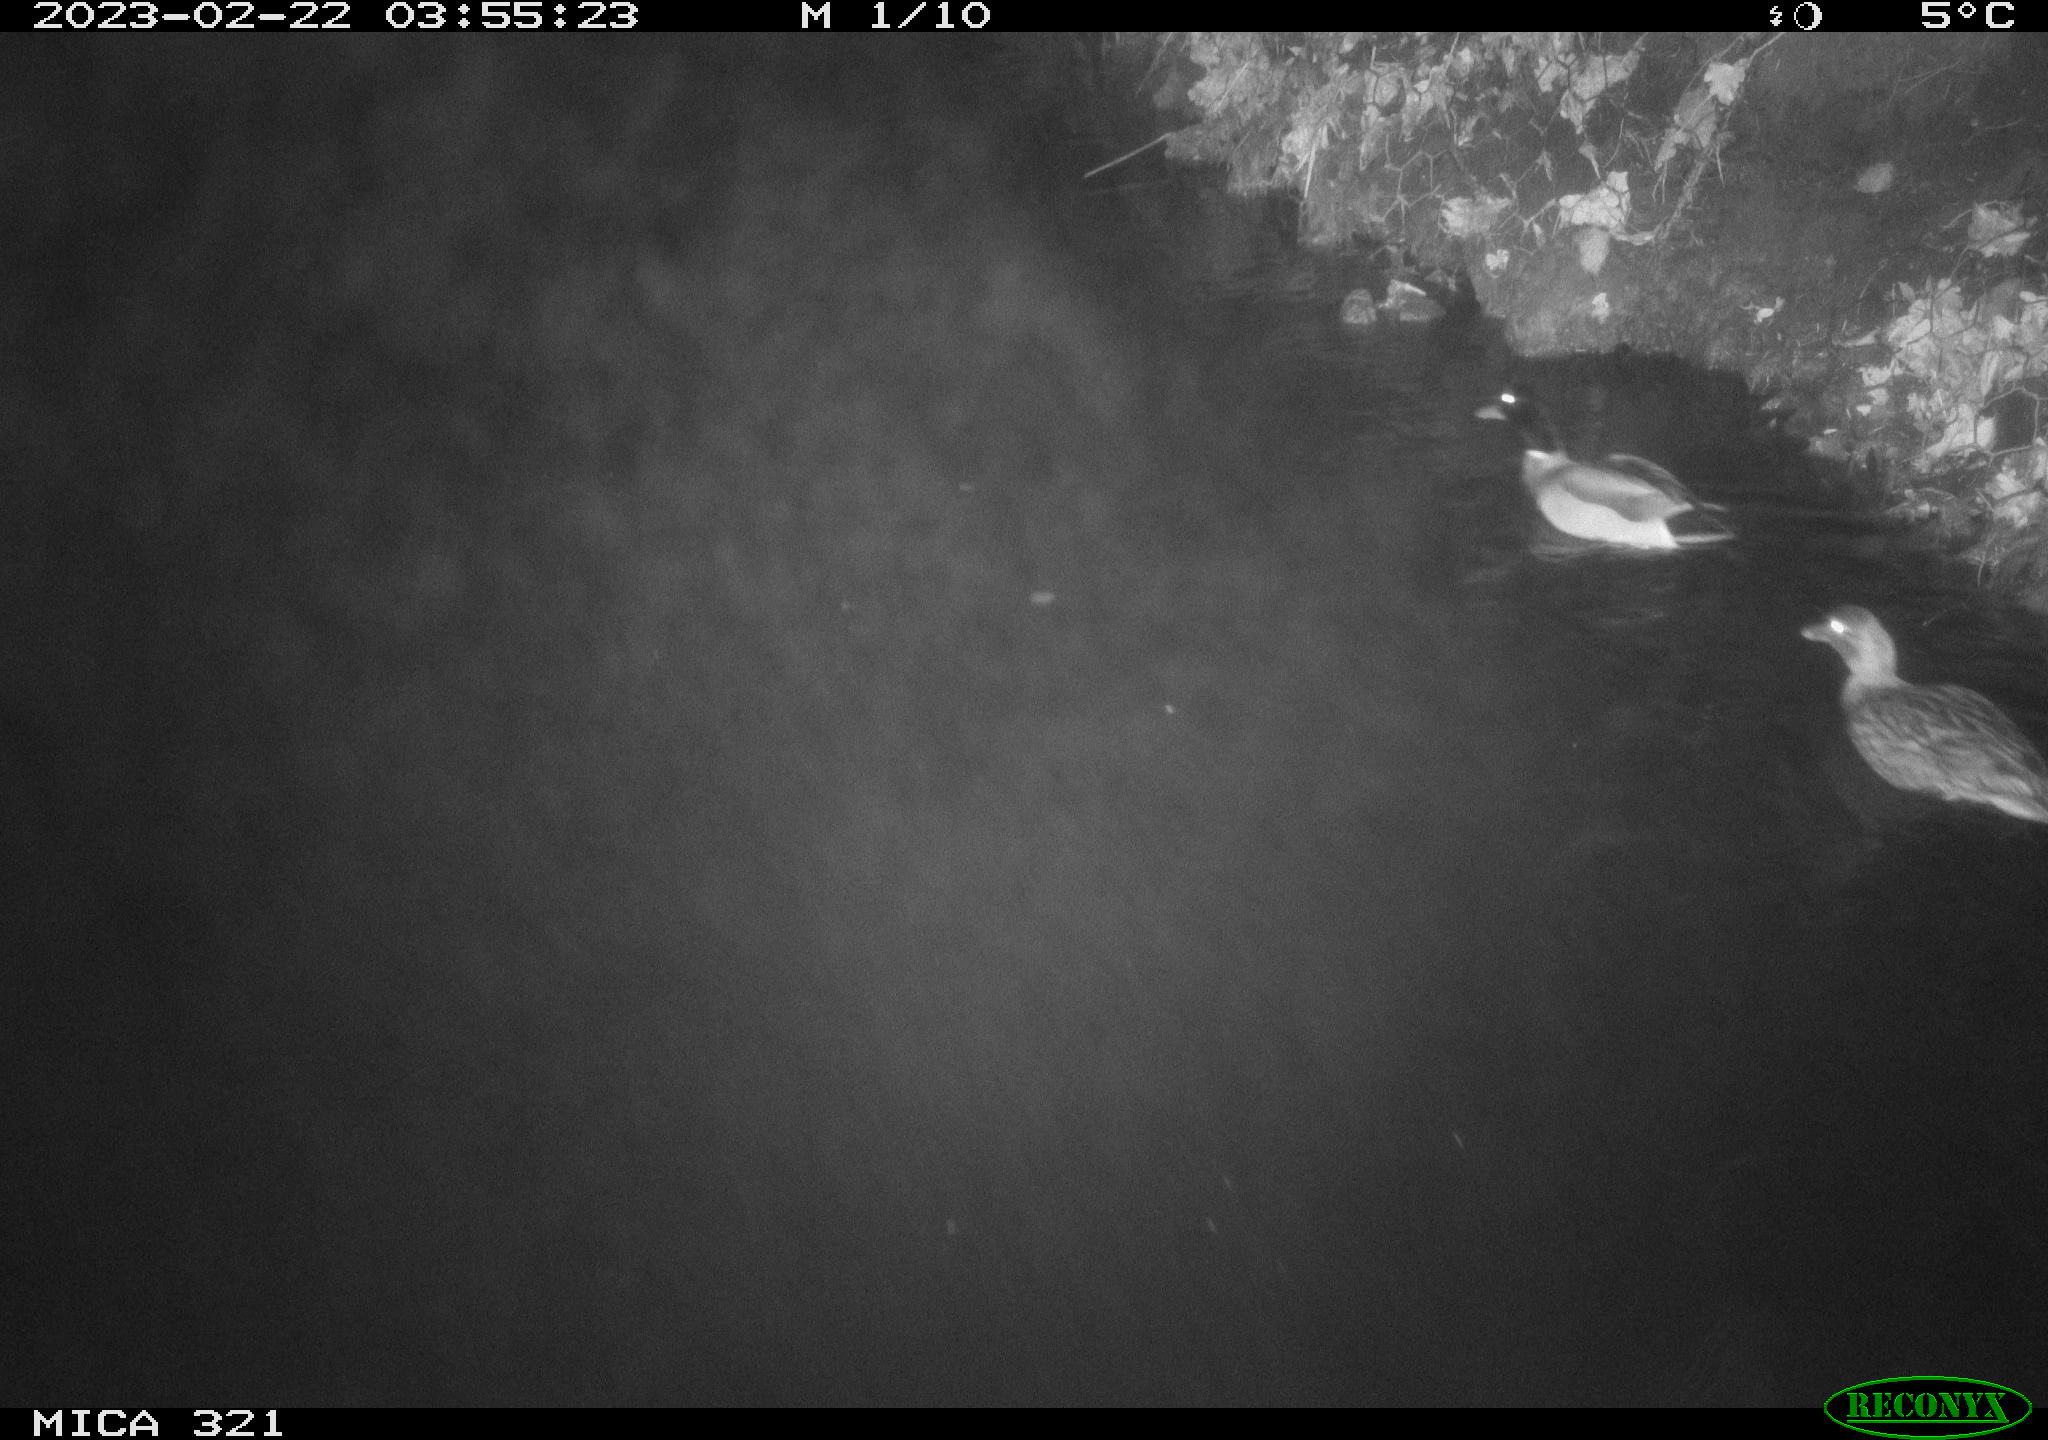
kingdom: Animalia
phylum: Chordata
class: Aves
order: Anseriformes
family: Anatidae
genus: Anas
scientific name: Anas
